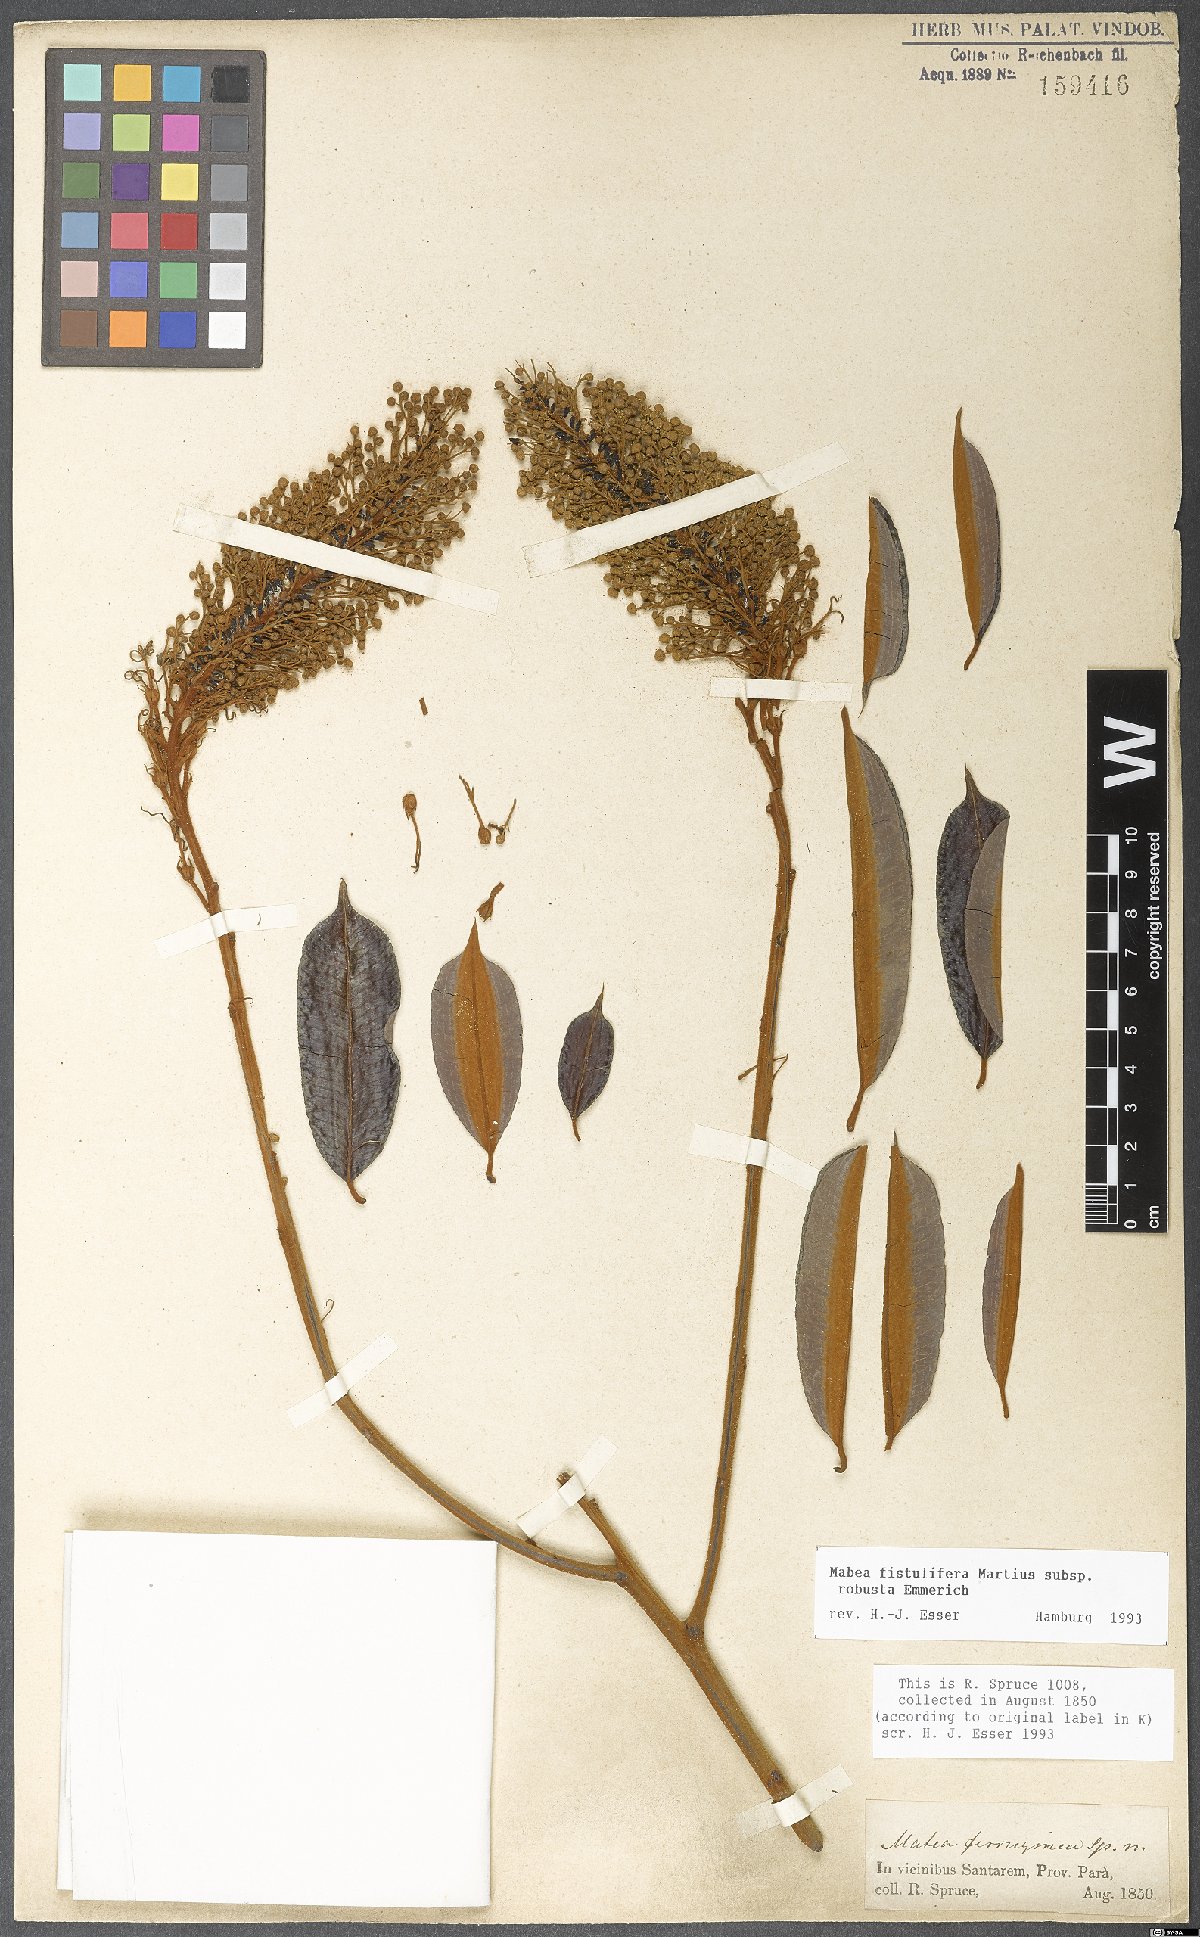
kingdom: Plantae
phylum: Tracheophyta
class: Magnoliopsida
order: Malpighiales
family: Euphorbiaceae
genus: Mabea
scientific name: Mabea fistulifera
